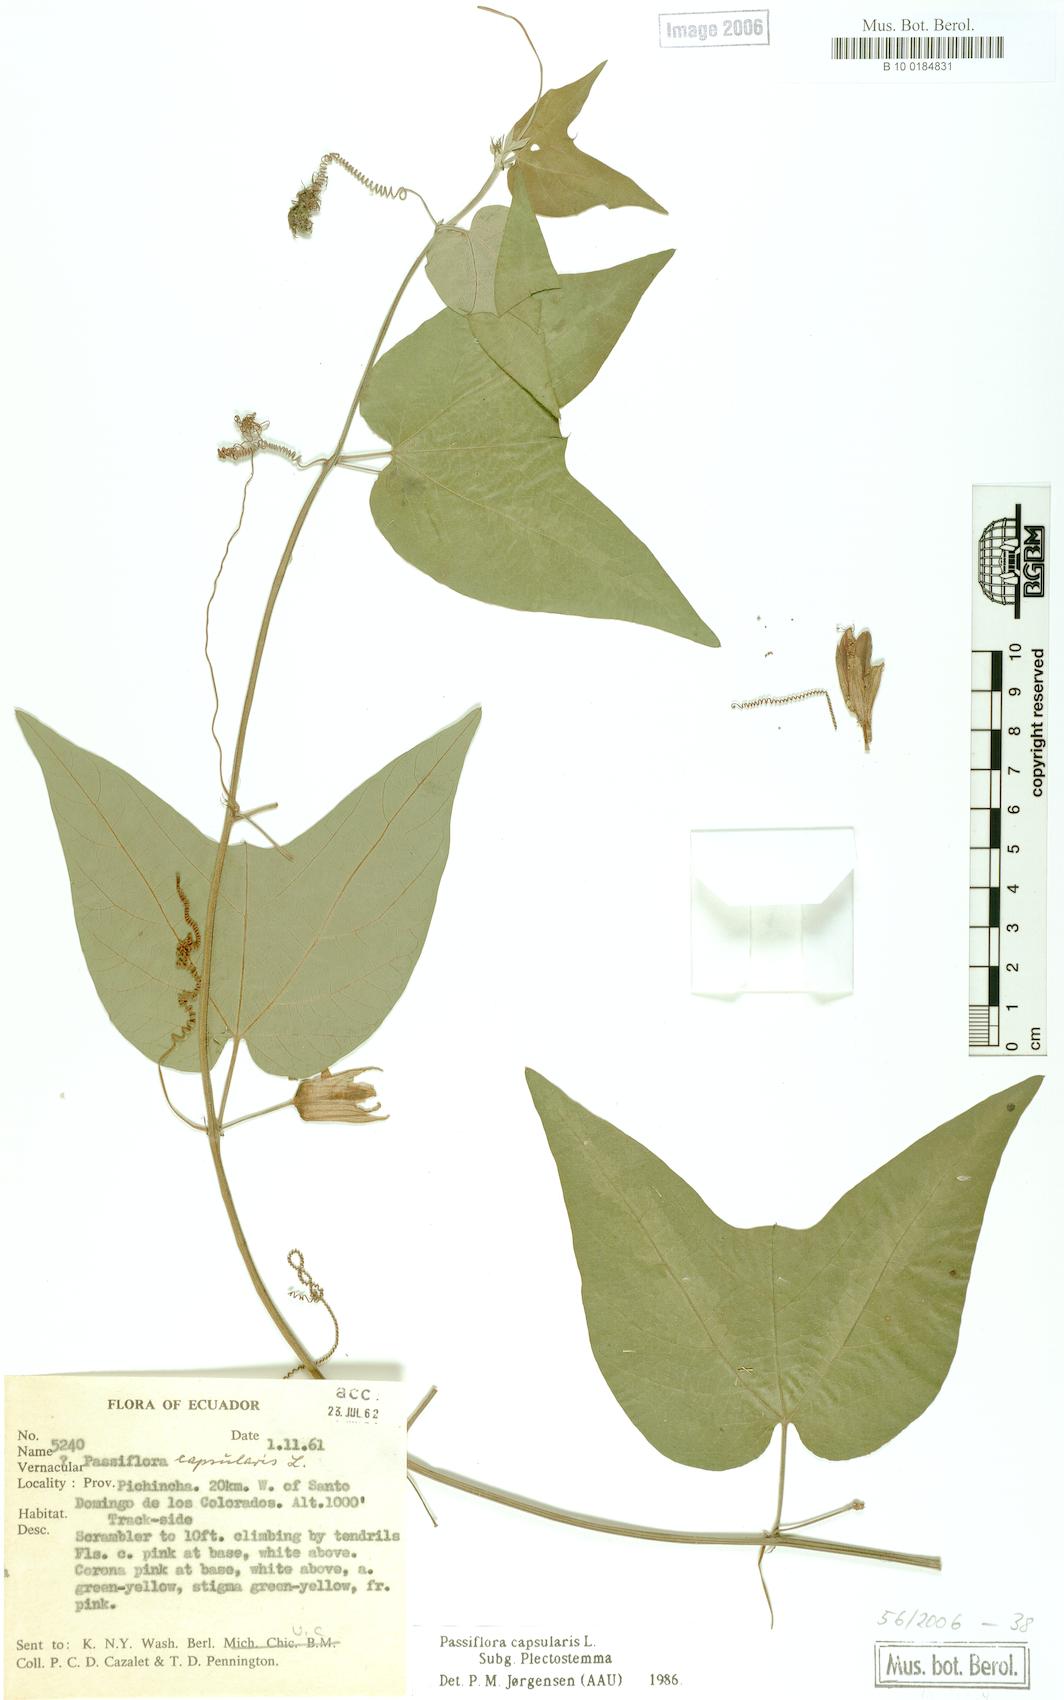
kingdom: Plantae
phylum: Tracheophyta
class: Magnoliopsida
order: Malpighiales
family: Passifloraceae
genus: Passiflora
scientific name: Passiflora capsularis
